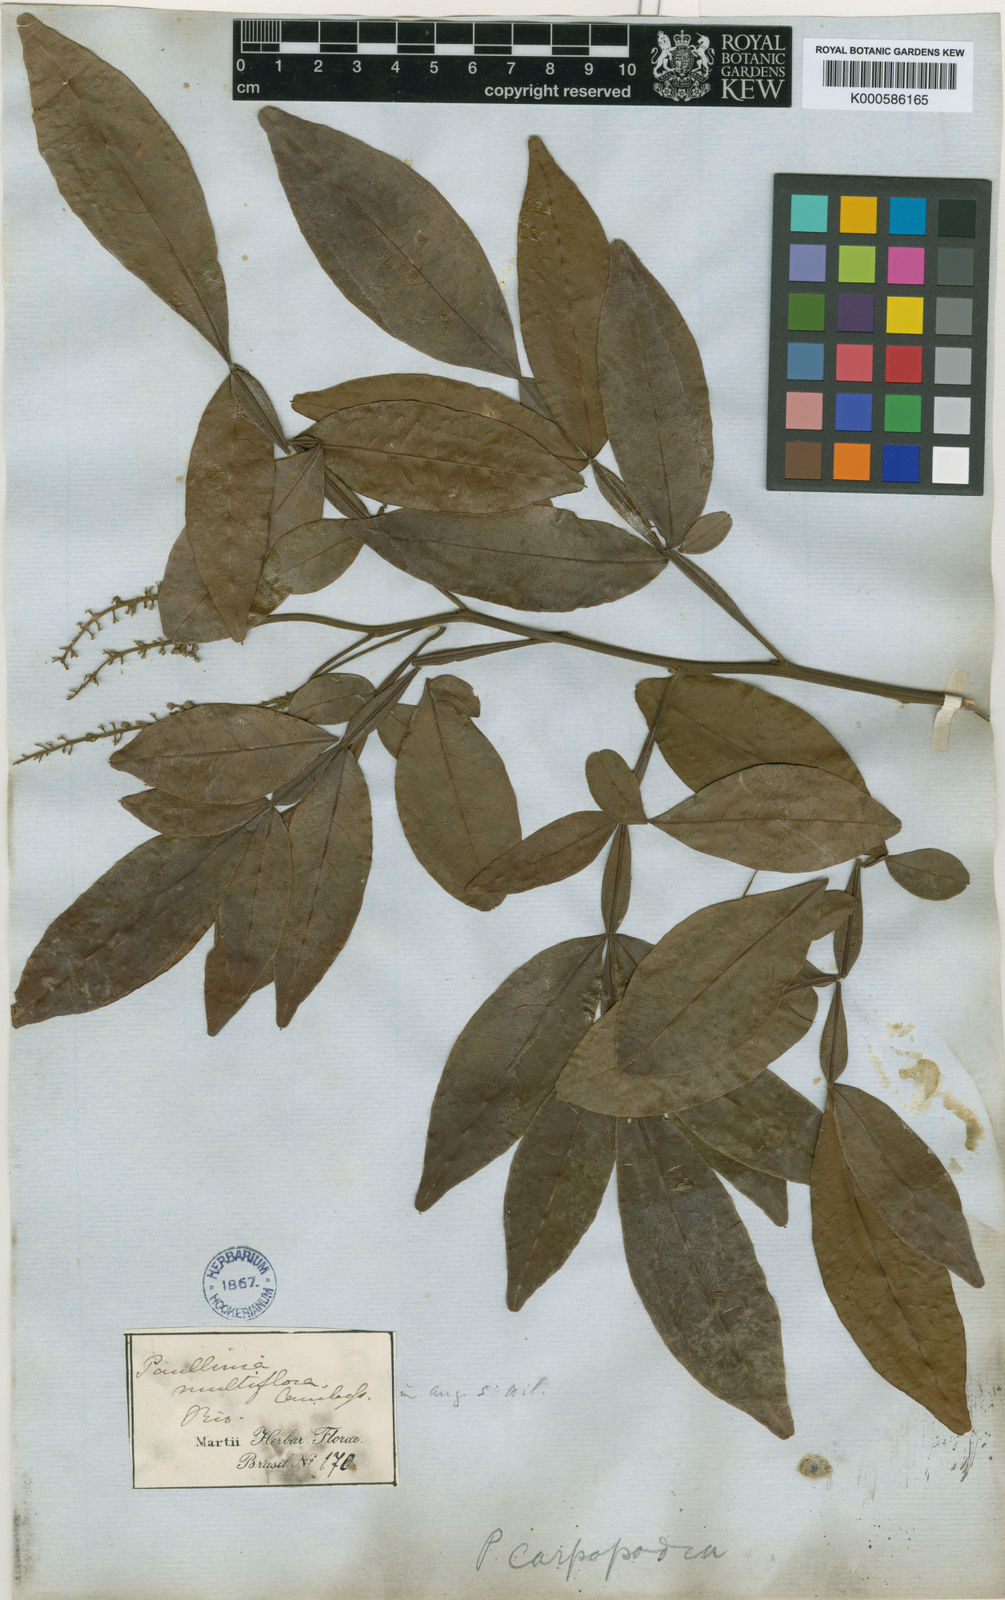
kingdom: Plantae
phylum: Tracheophyta
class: Magnoliopsida
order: Sapindales
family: Sapindaceae
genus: Paullinia
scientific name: Paullinia carpopodea
